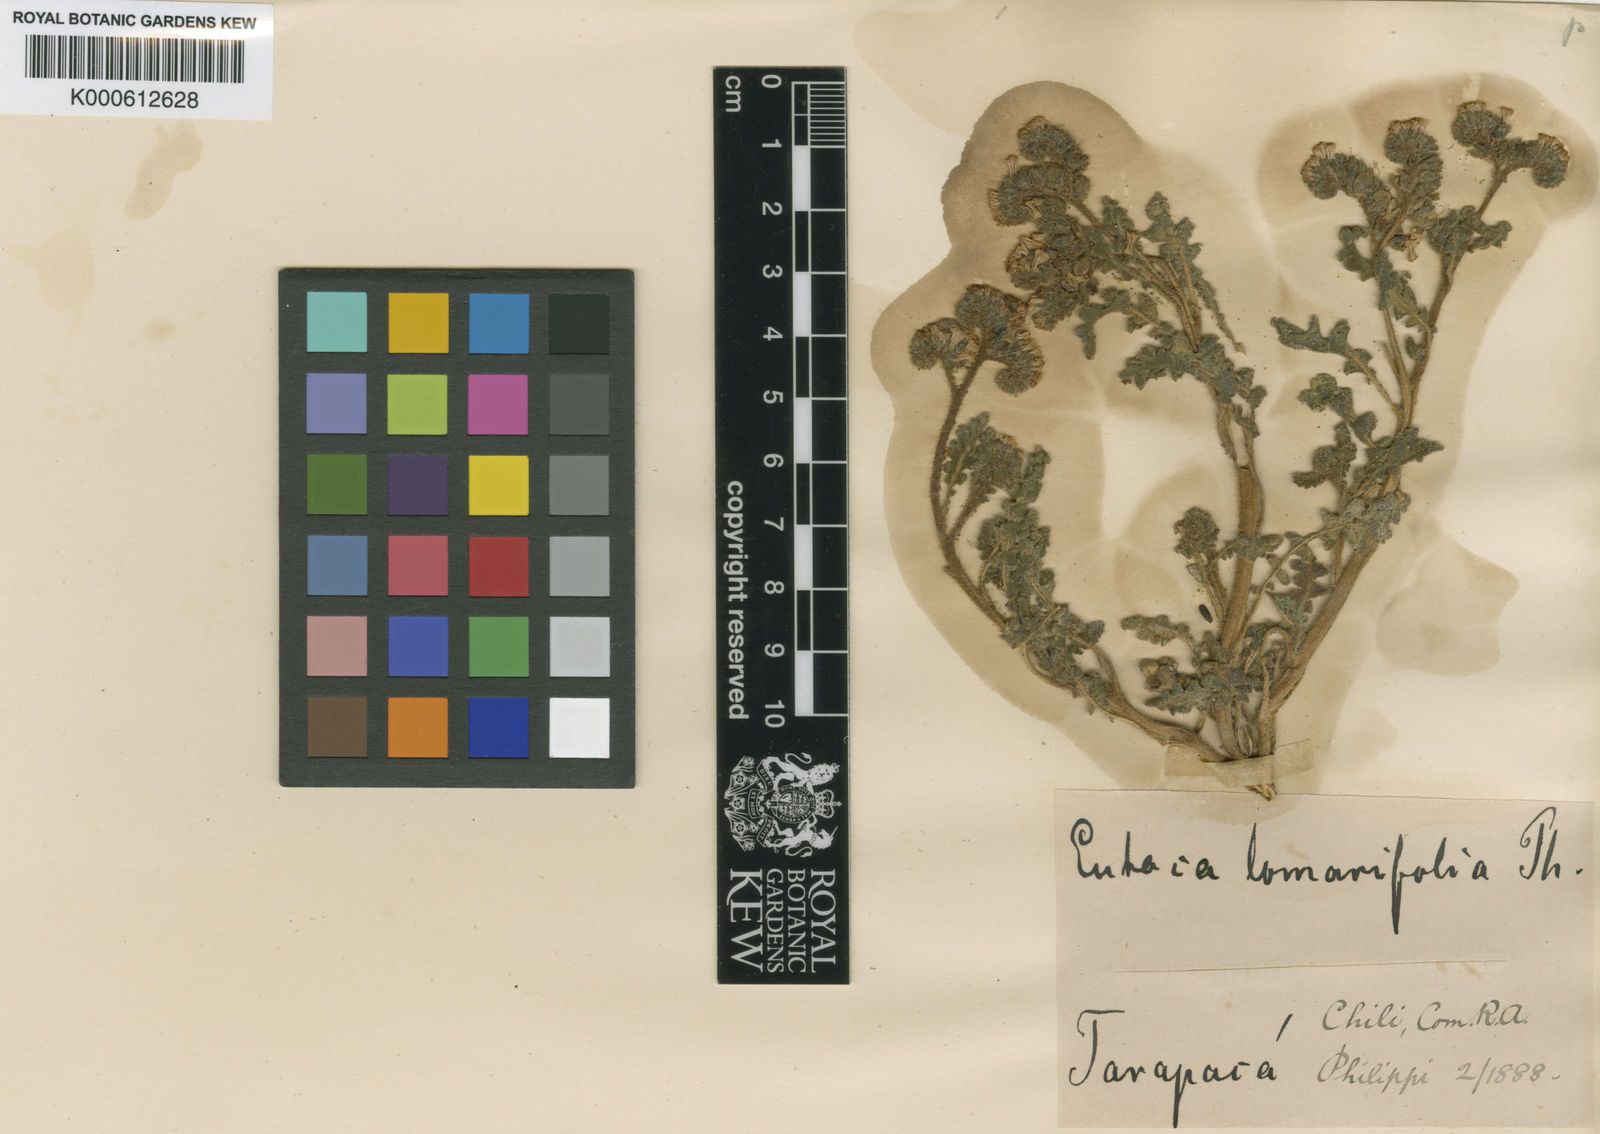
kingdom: Plantae
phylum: Tracheophyta
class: Magnoliopsida
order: Boraginales
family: Hydrophyllaceae
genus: Phacelia
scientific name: Phacelia nana
